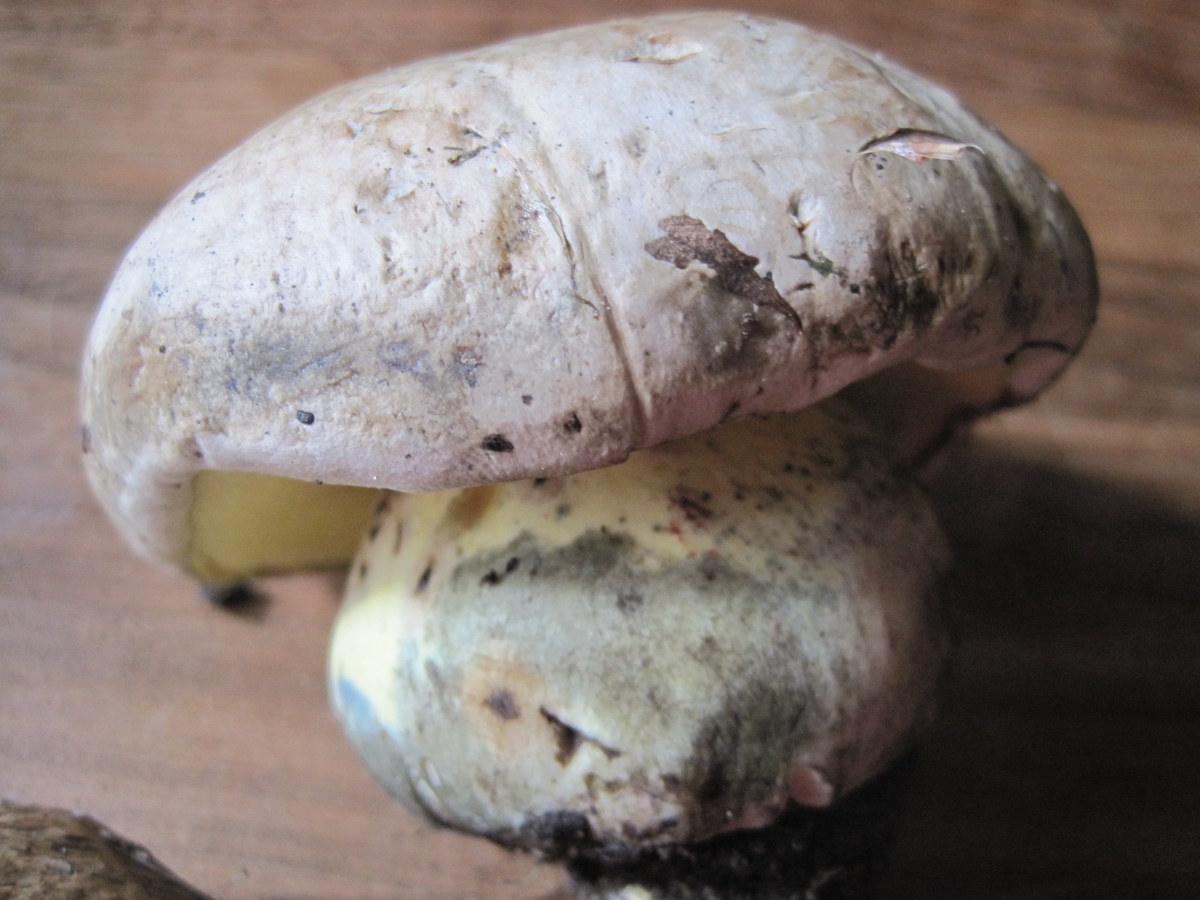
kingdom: Fungi
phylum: Basidiomycota
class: Agaricomycetes
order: Boletales
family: Boletaceae
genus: Caloboletus
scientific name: Caloboletus radicans
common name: rod-rørhat
